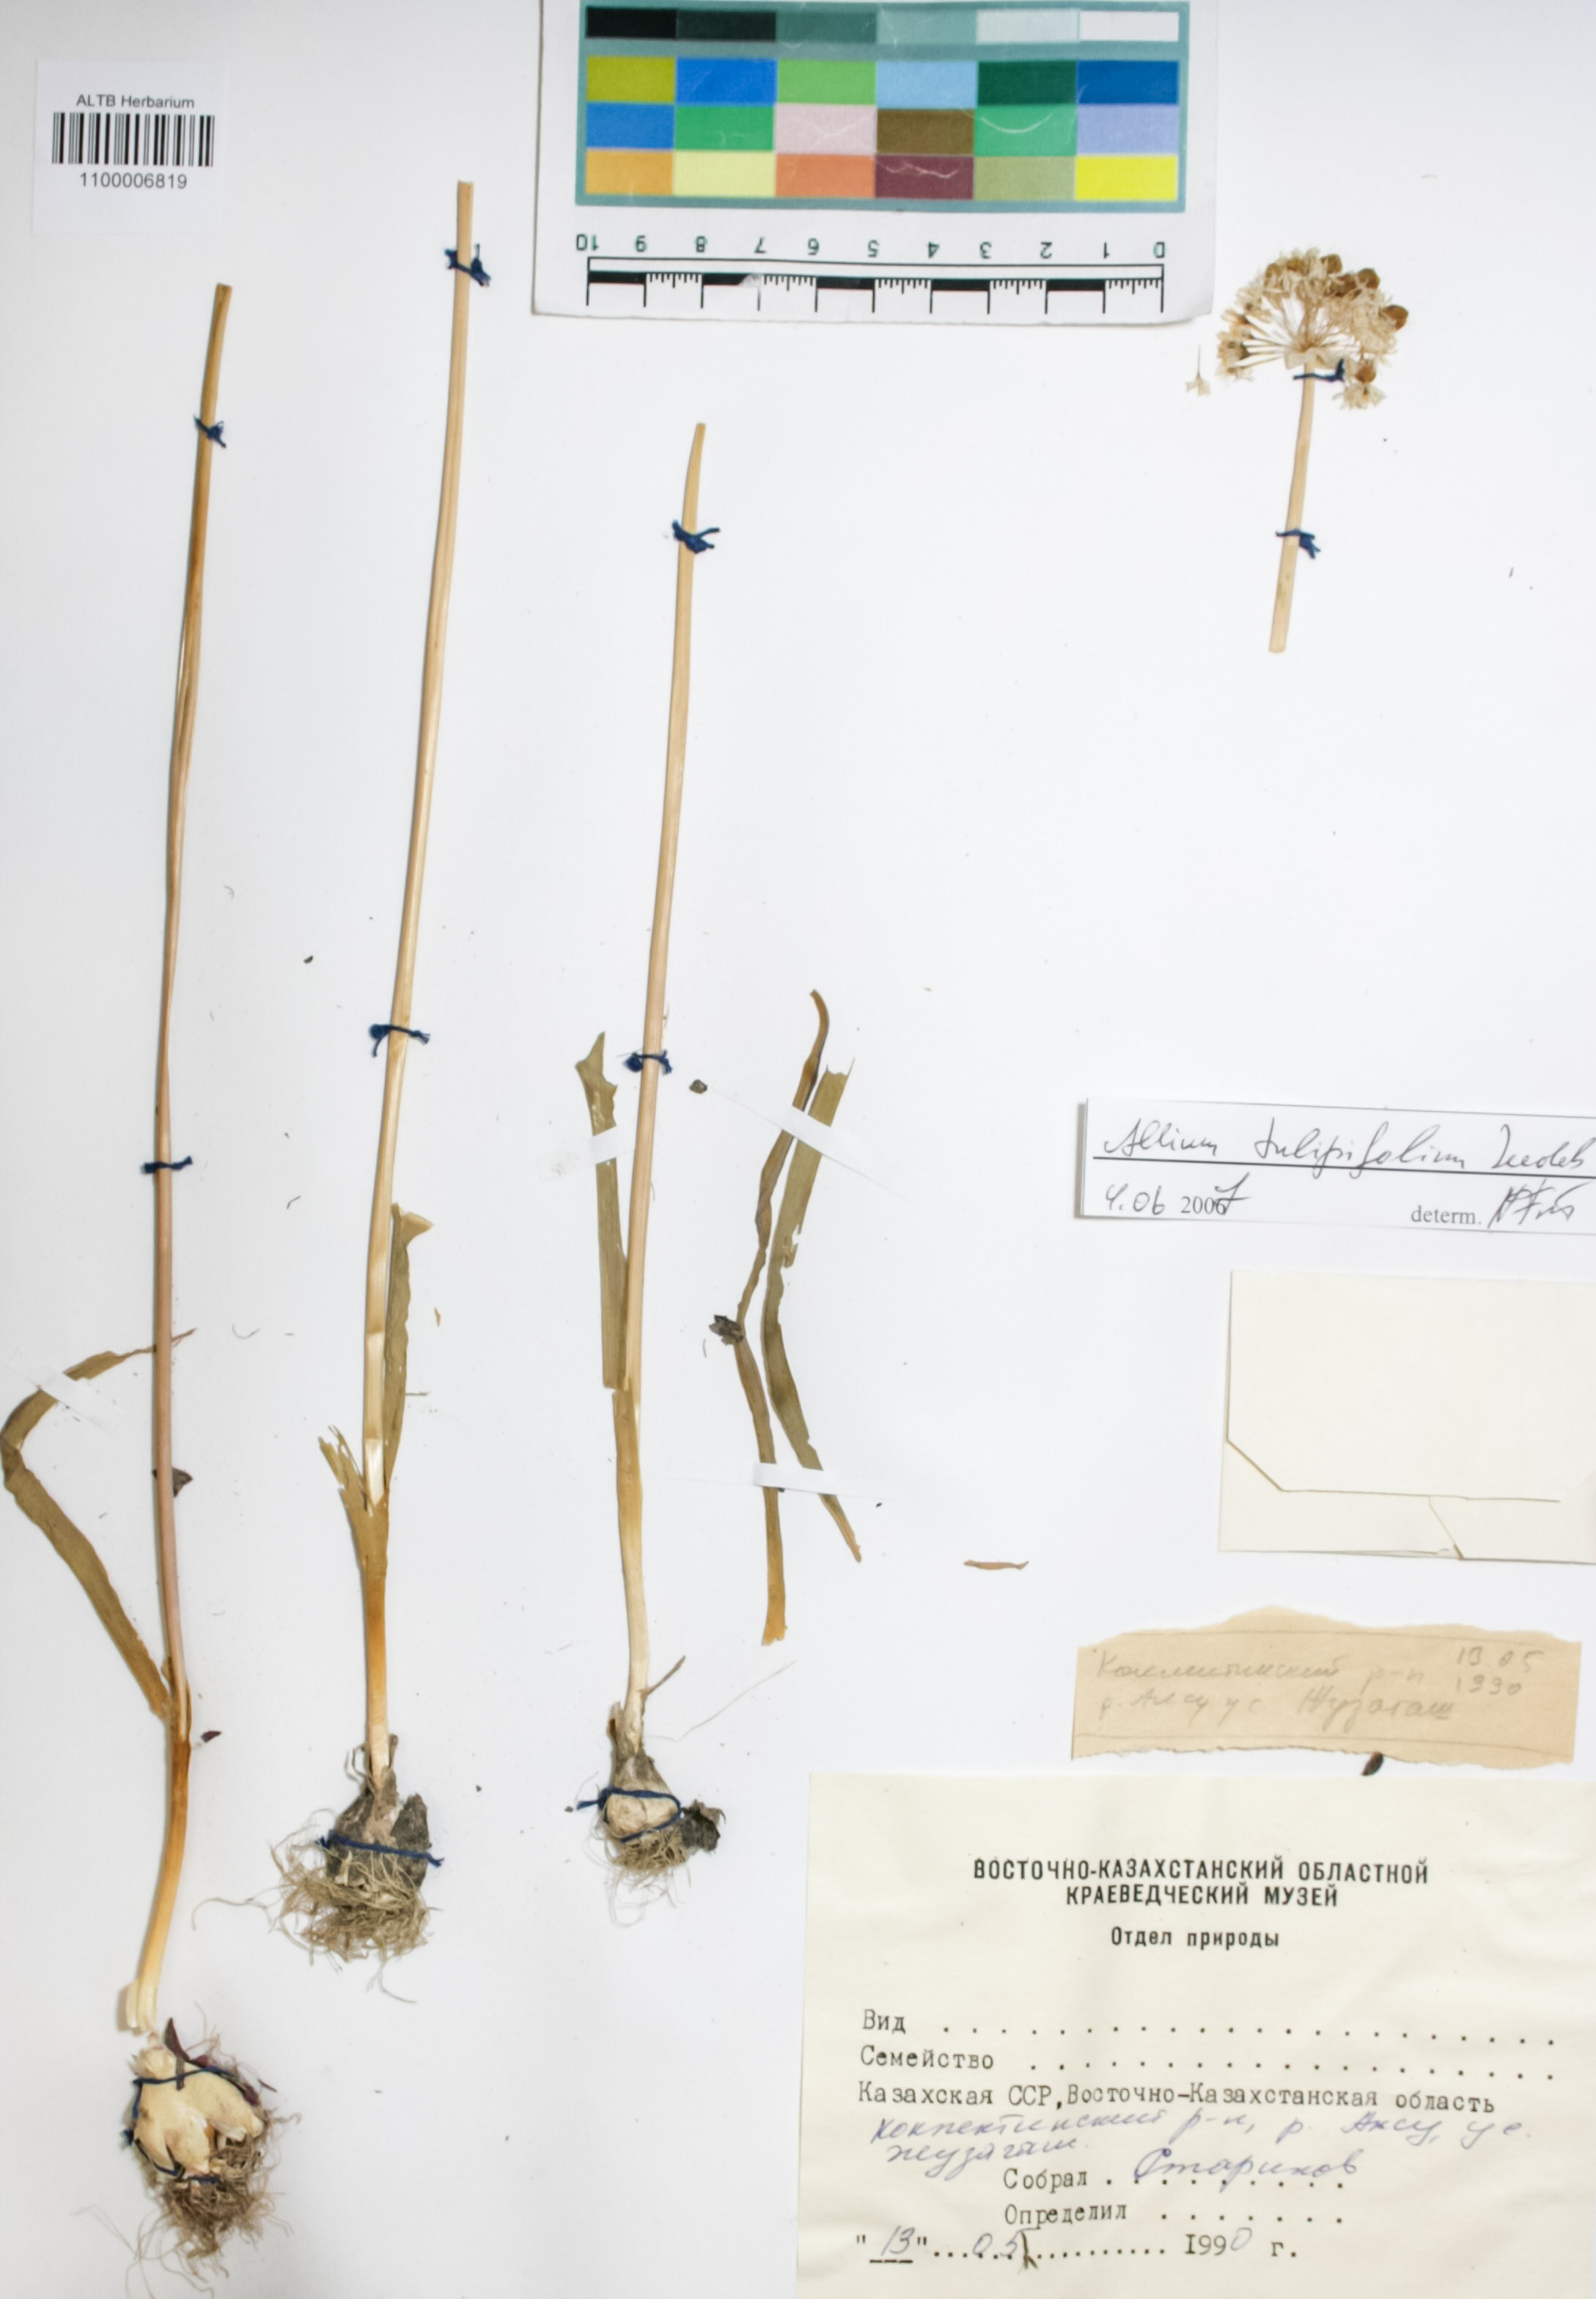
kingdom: Plantae
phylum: Tracheophyta
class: Liliopsida
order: Asparagales
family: Amaryllidaceae
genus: Allium
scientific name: Allium tulipifolium
